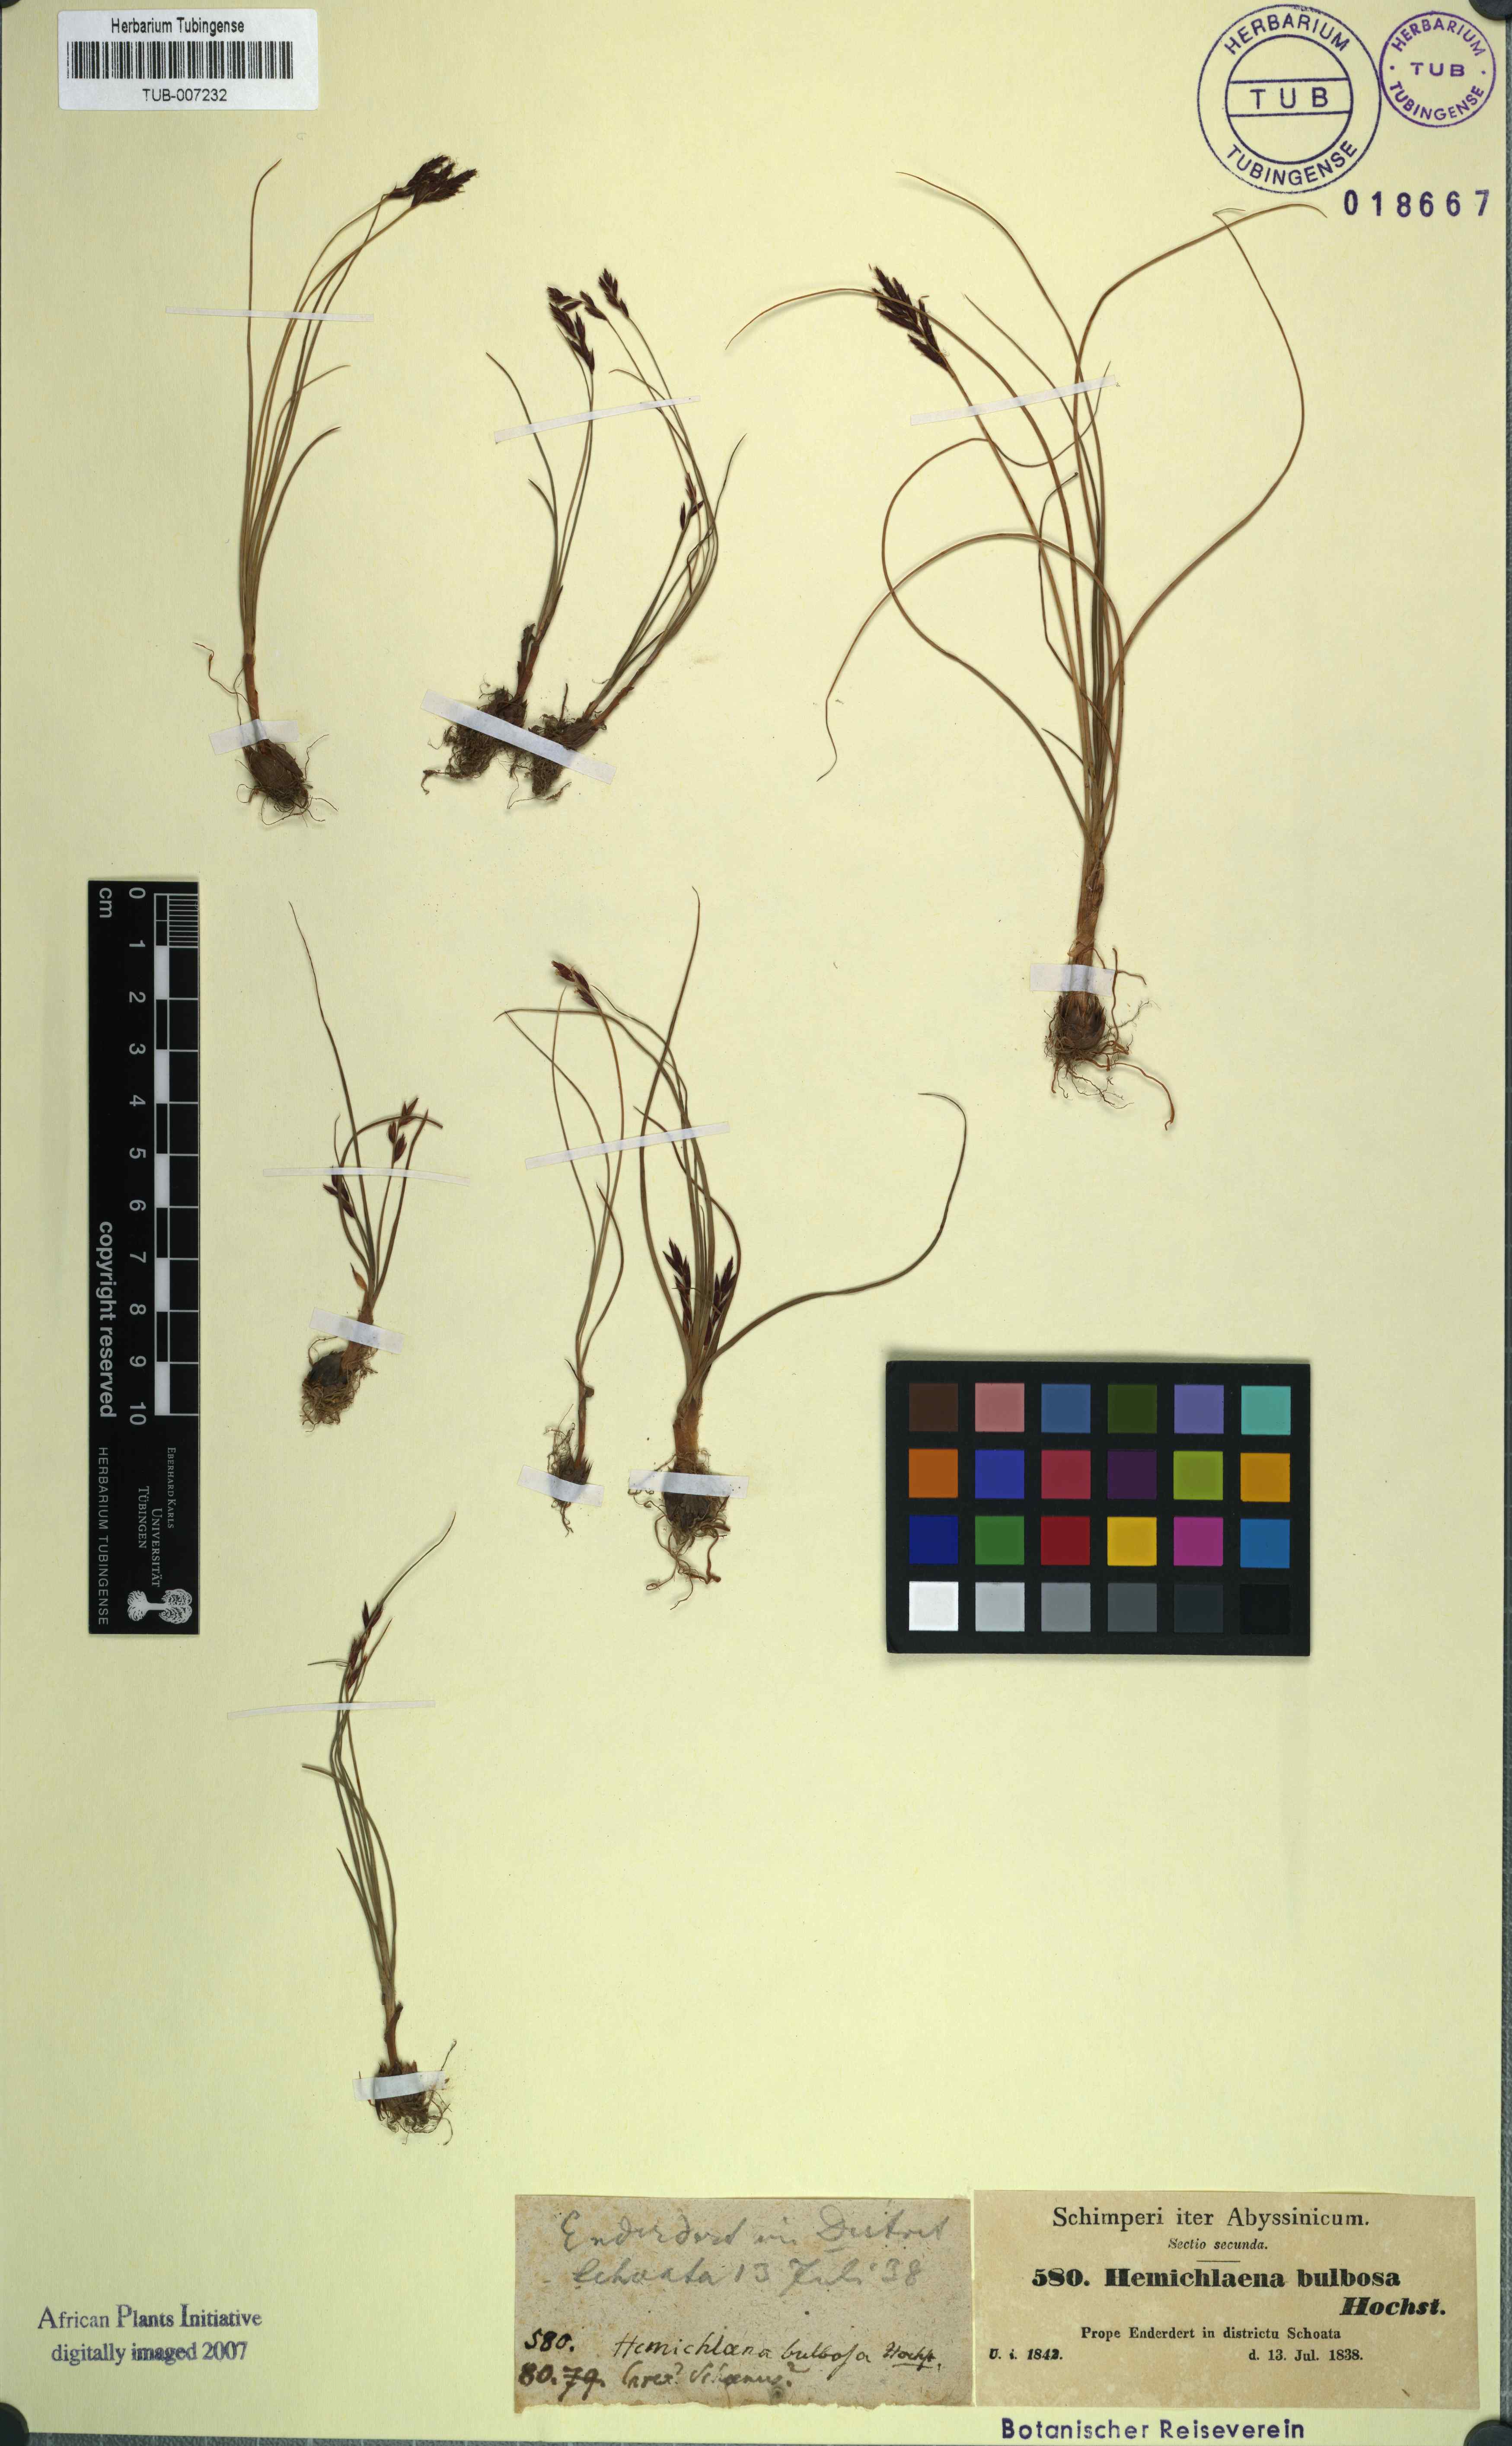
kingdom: Plantae
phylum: Tracheophyta
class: Liliopsida
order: Poales
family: Cyperaceae
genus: Cyperus
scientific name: Cyperus blysmoides
